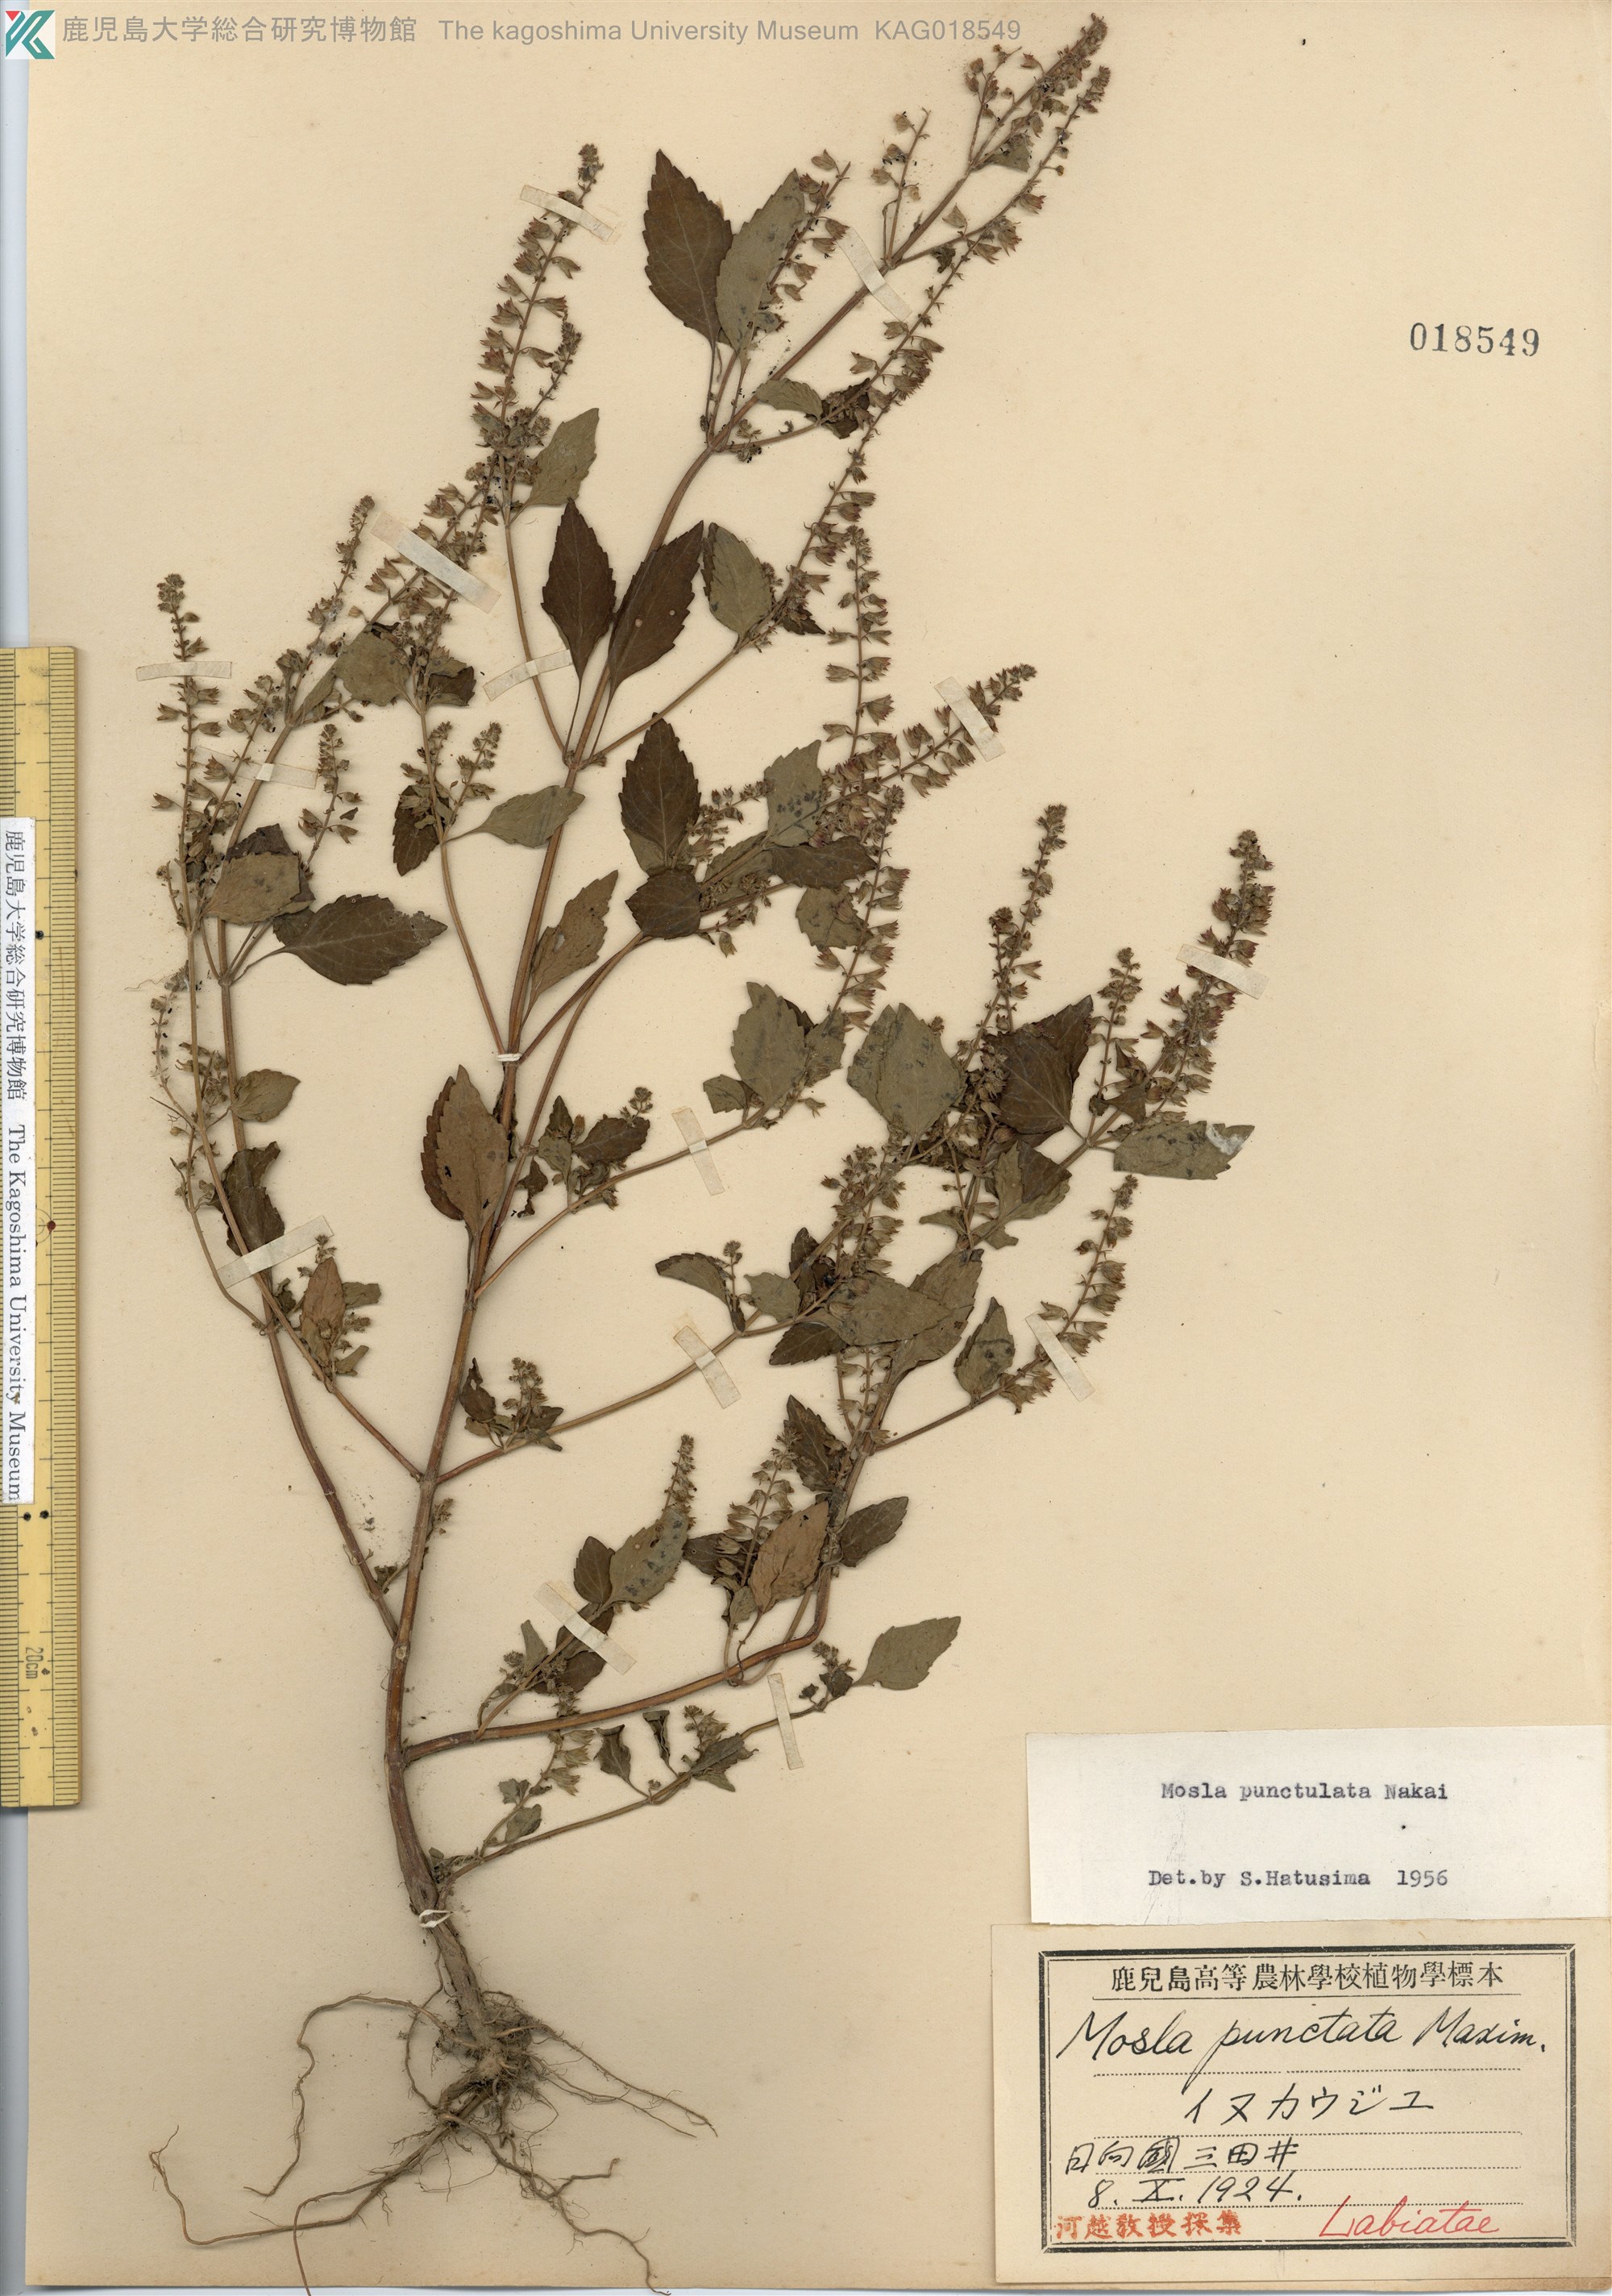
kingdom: Plantae
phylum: Tracheophyta
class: Magnoliopsida
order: Lamiales
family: Lamiaceae
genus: Mosla
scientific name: Mosla scabra
